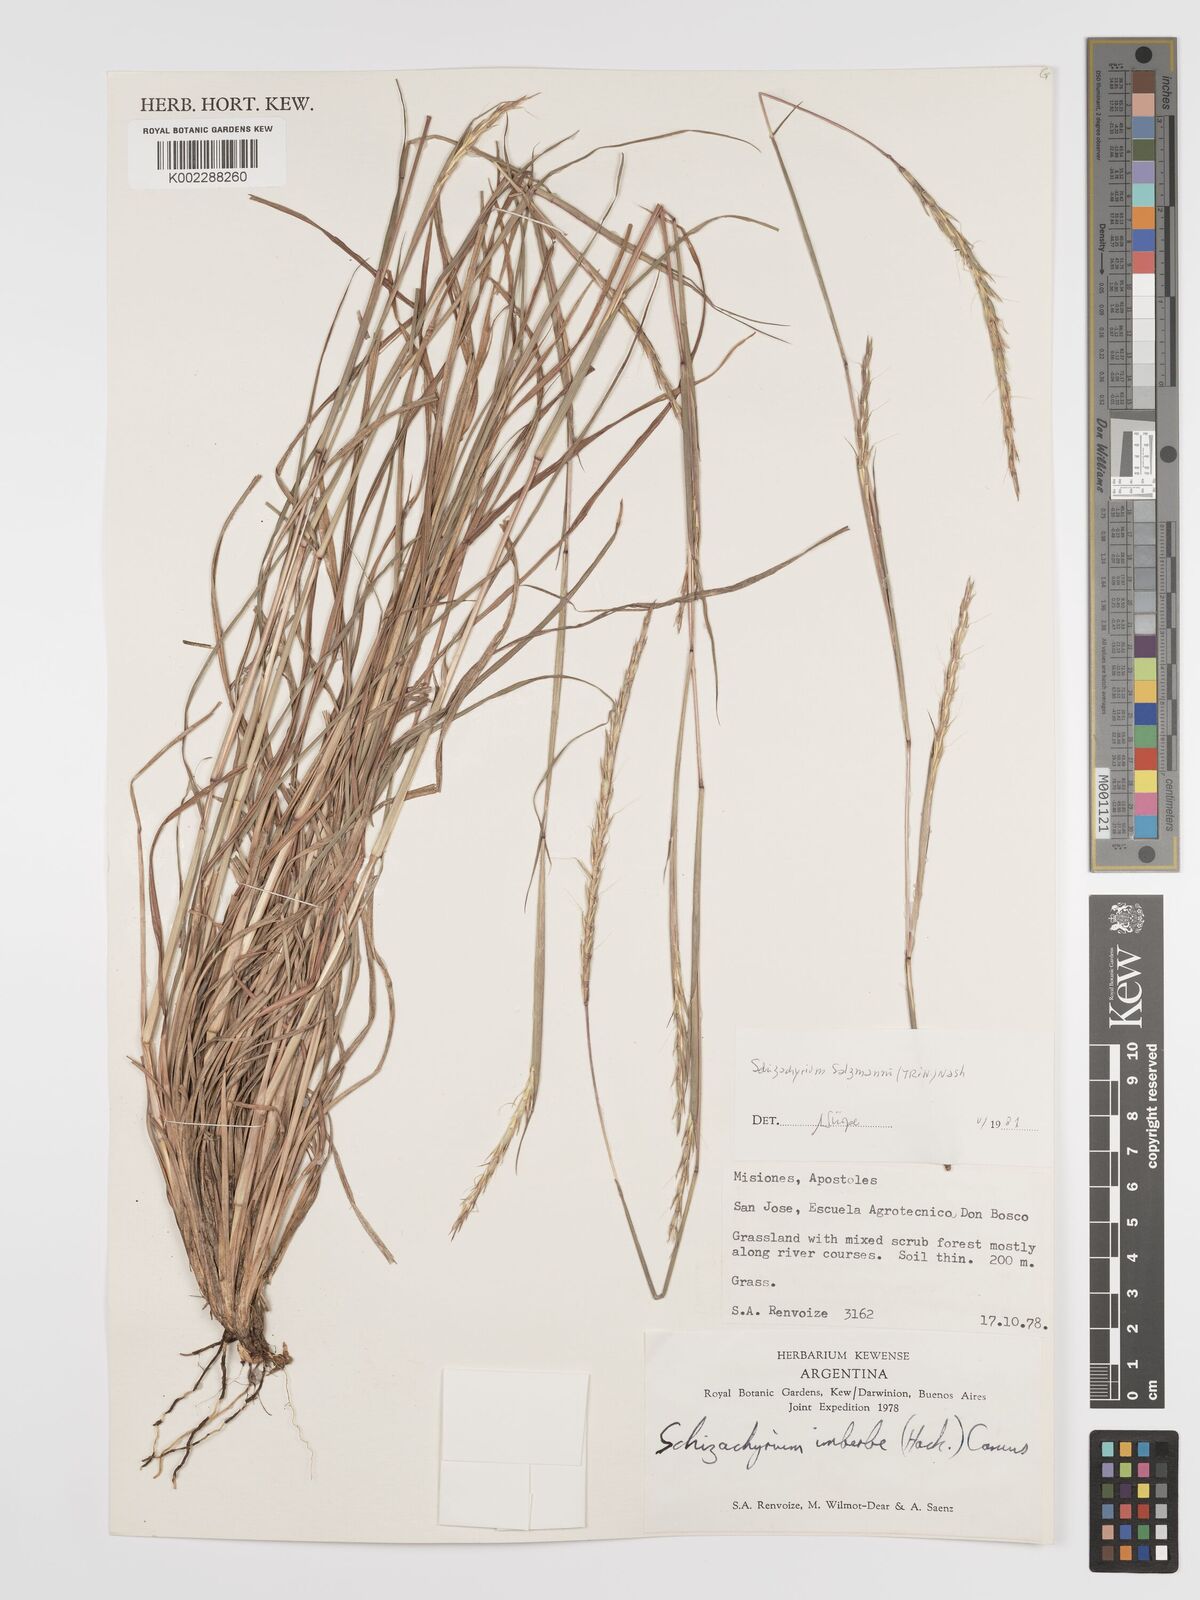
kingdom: Plantae
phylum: Tracheophyta
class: Liliopsida
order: Poales
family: Poaceae
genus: Andropogon
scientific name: Andropogon salzmannii
